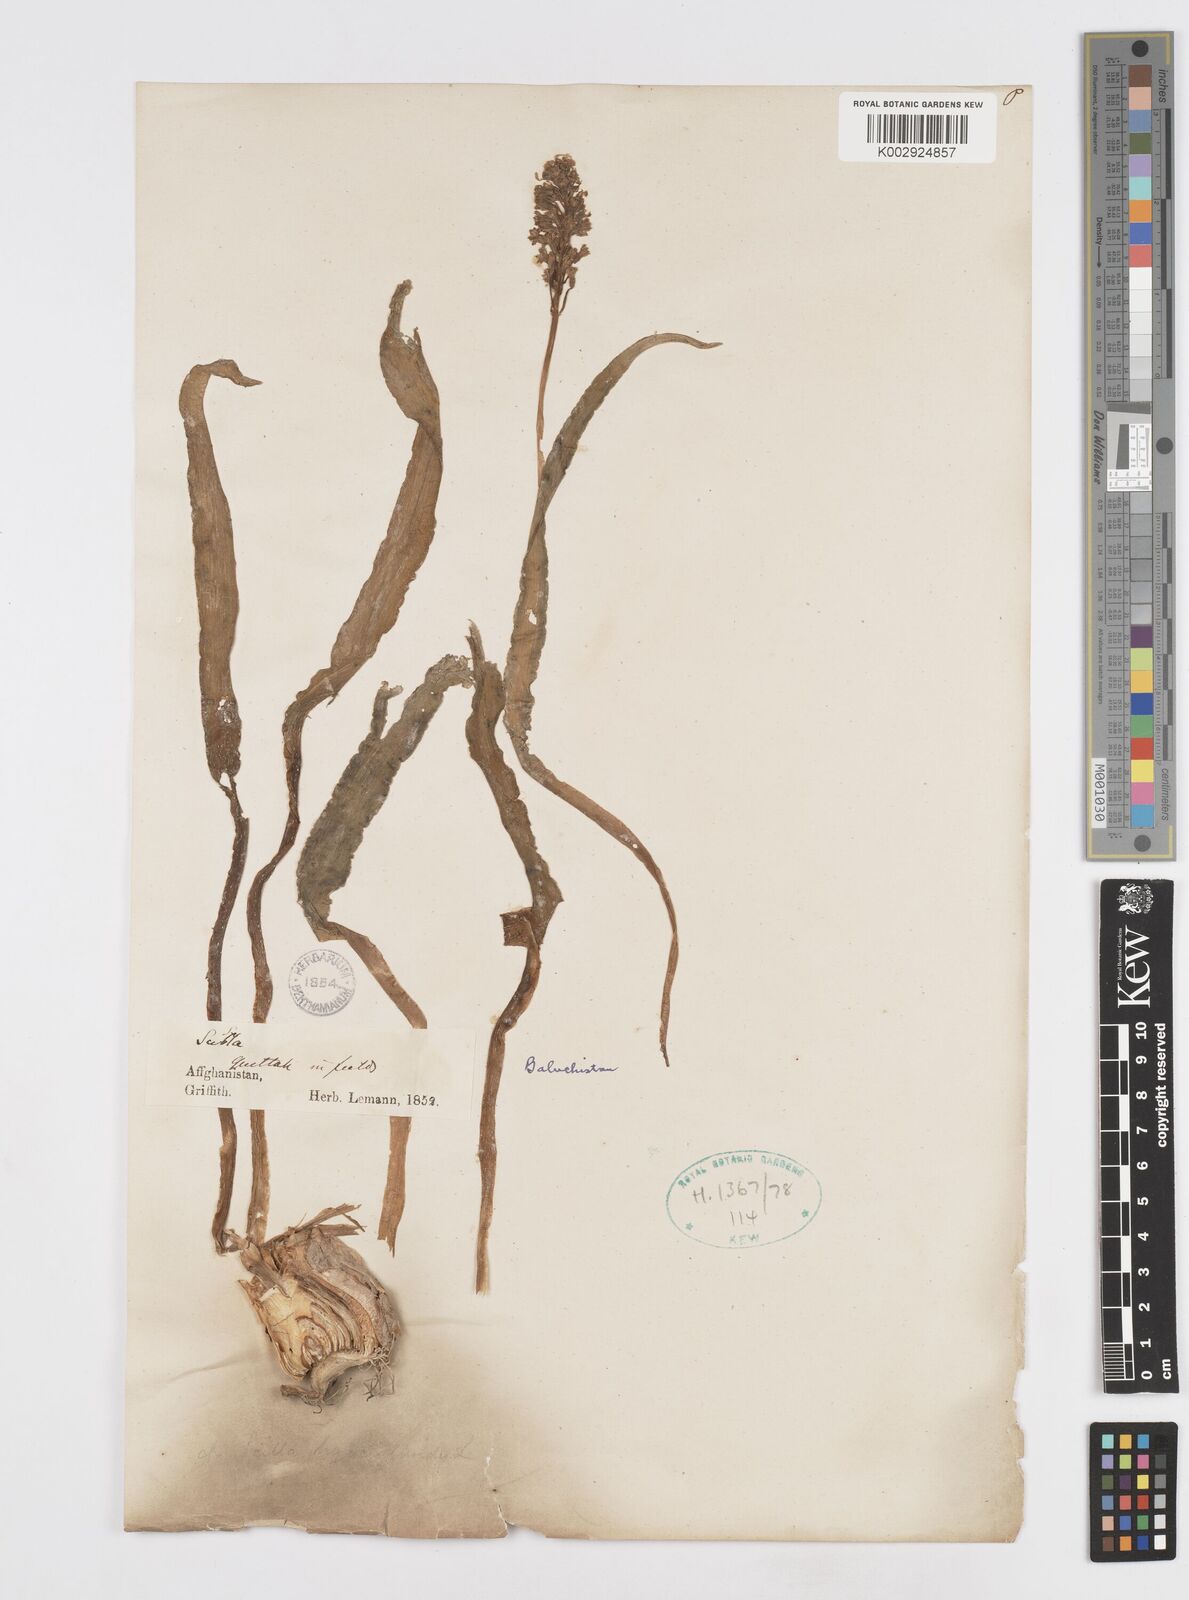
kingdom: Plantae
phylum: Tracheophyta
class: Liliopsida
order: Asparagales
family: Asparagaceae
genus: Bellevalia
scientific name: Bellevalia
